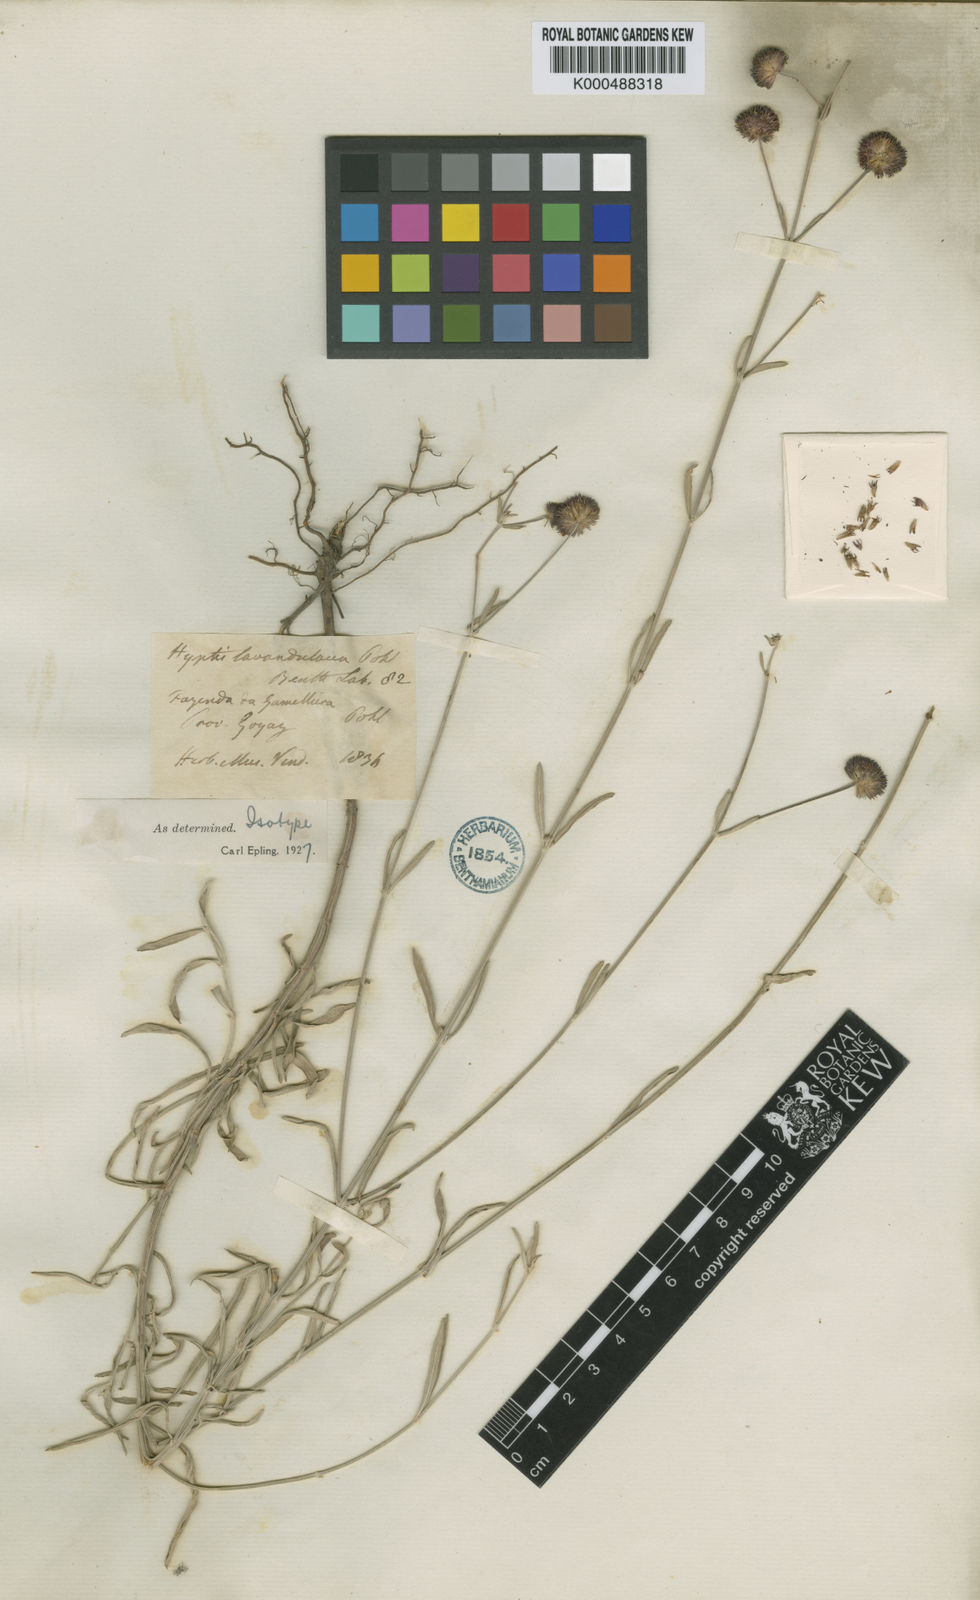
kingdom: Plantae
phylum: Tracheophyta
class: Magnoliopsida
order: Lamiales
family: Lamiaceae
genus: Hyptis
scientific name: Hyptis lavandulacea
